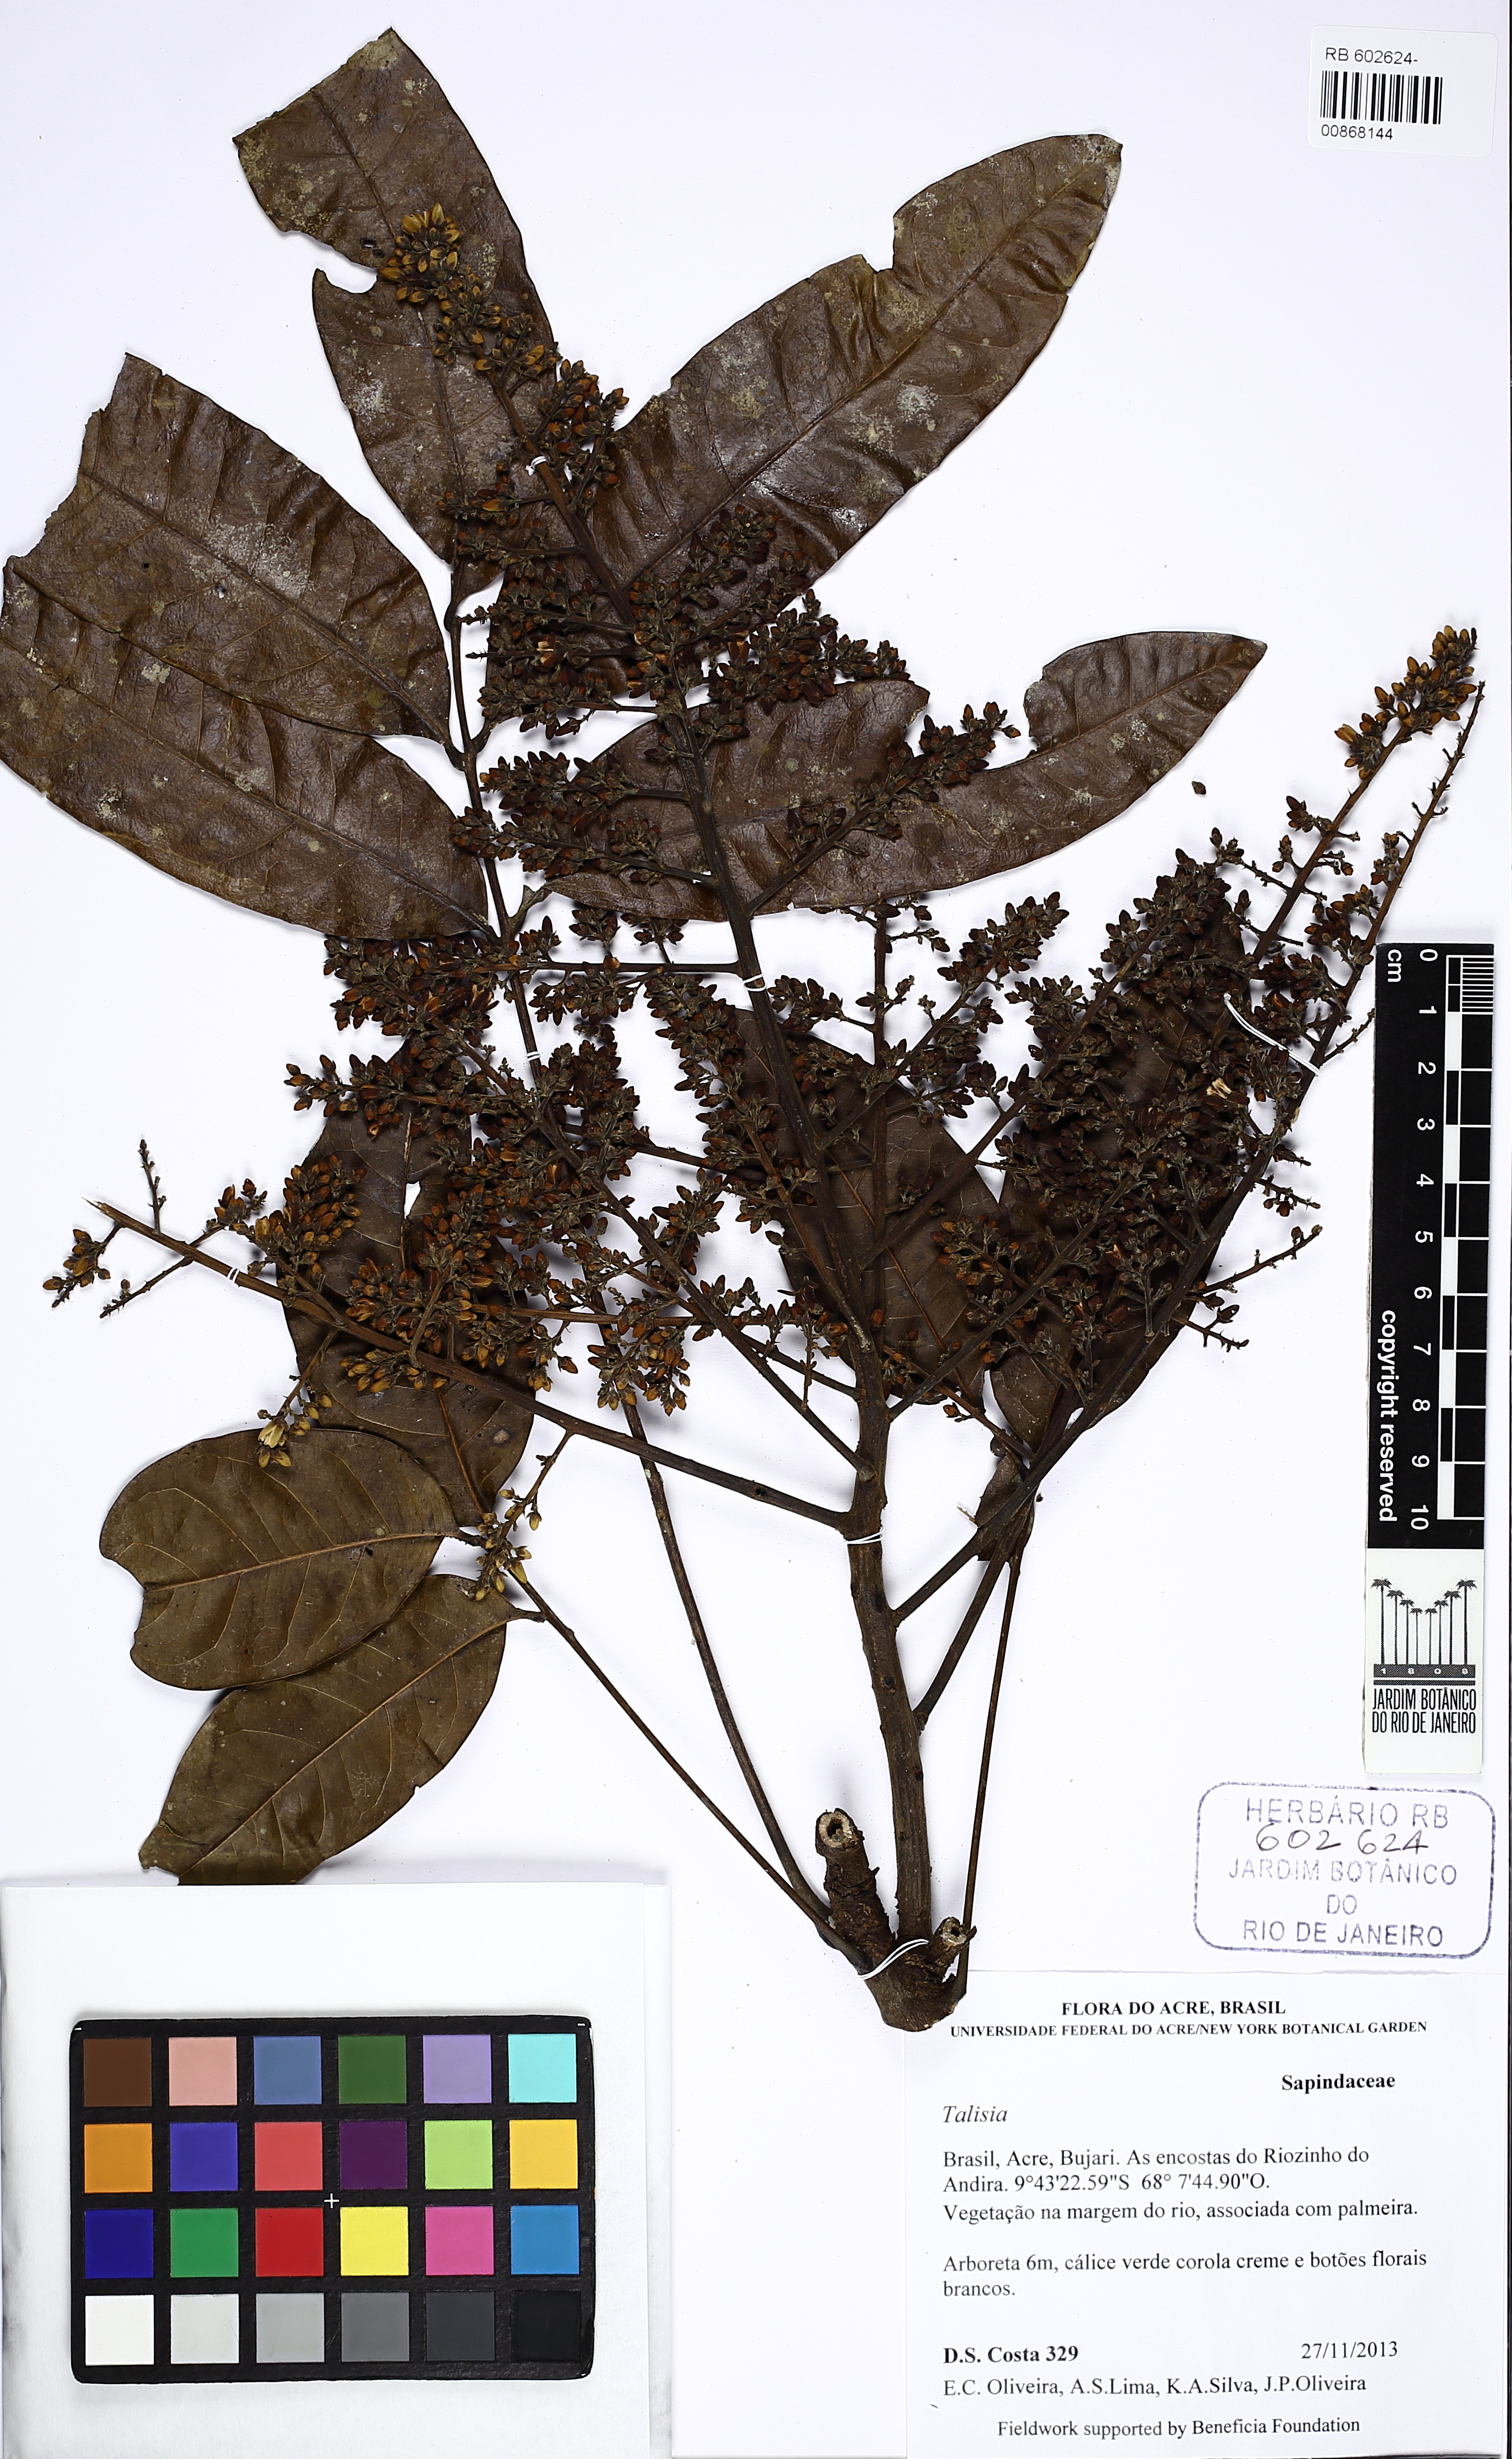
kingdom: Plantae
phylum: Tracheophyta
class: Magnoliopsida
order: Sapindales
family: Sapindaceae
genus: Talisia
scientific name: Talisia
